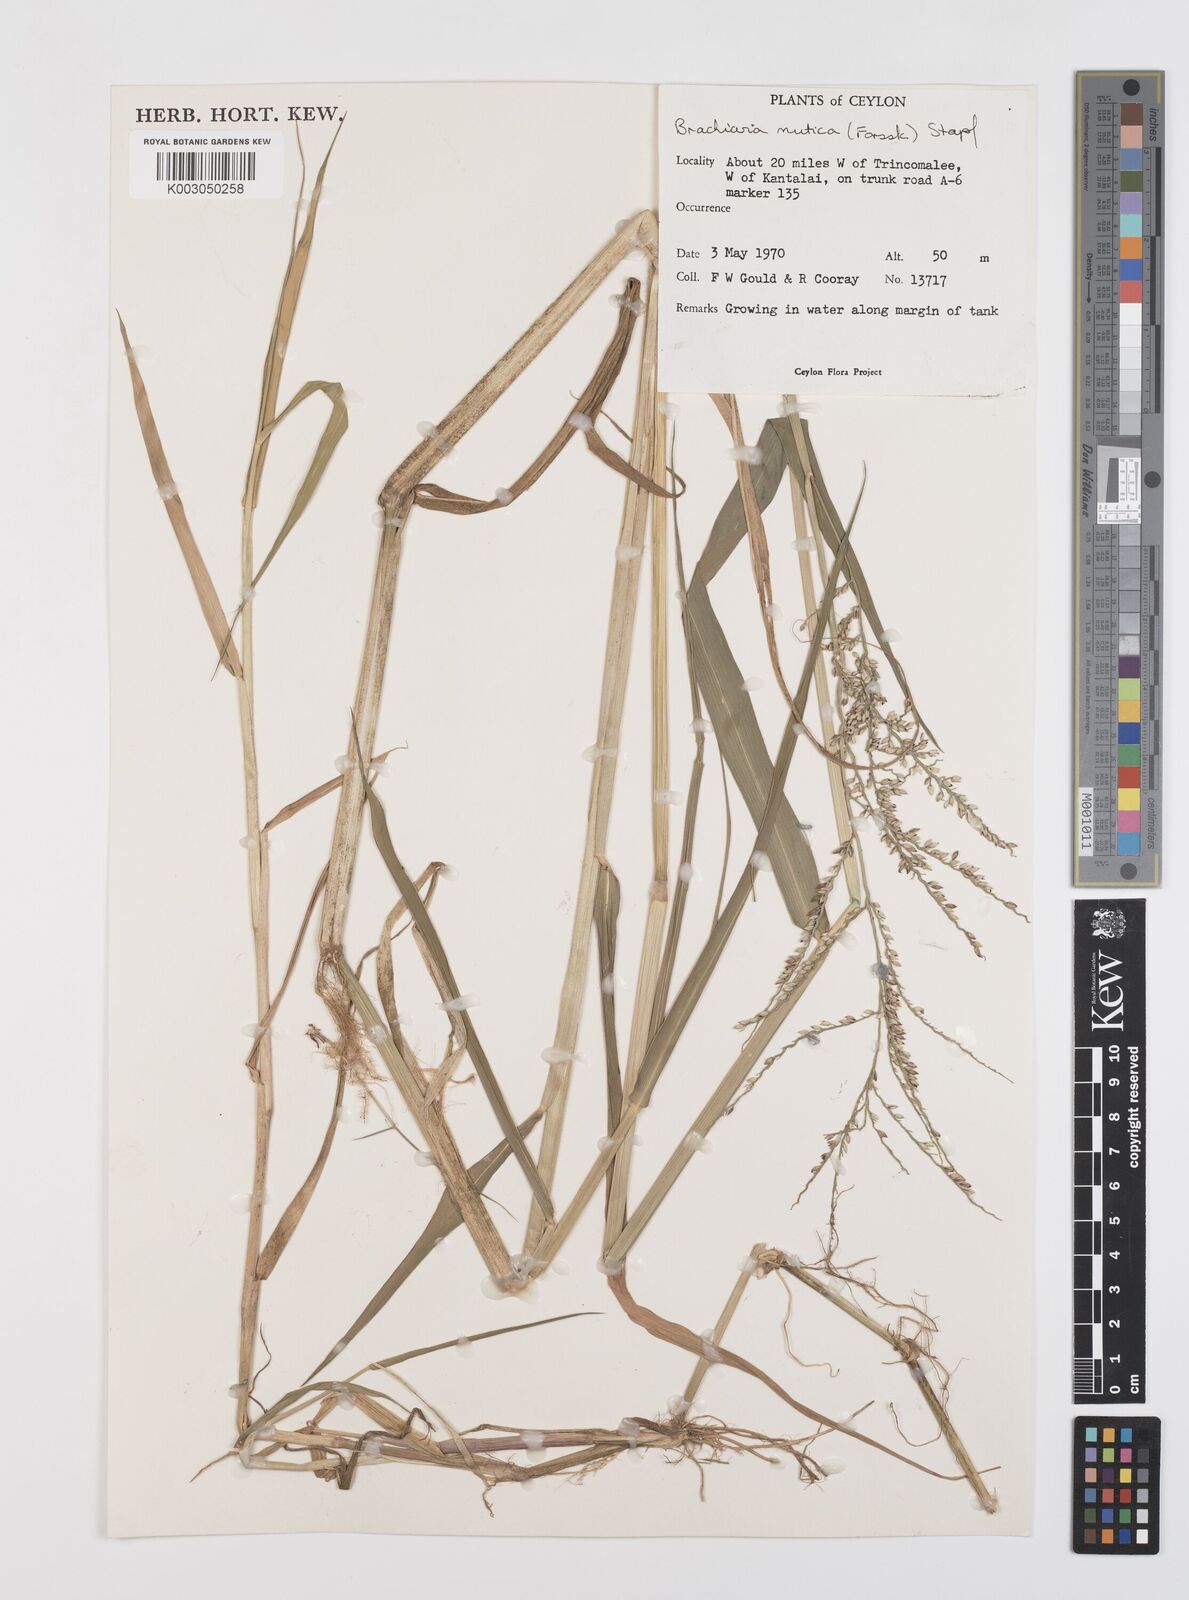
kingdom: Plantae
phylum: Tracheophyta
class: Liliopsida
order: Poales
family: Poaceae
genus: Urochloa
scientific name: Urochloa mutica
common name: Para grass
